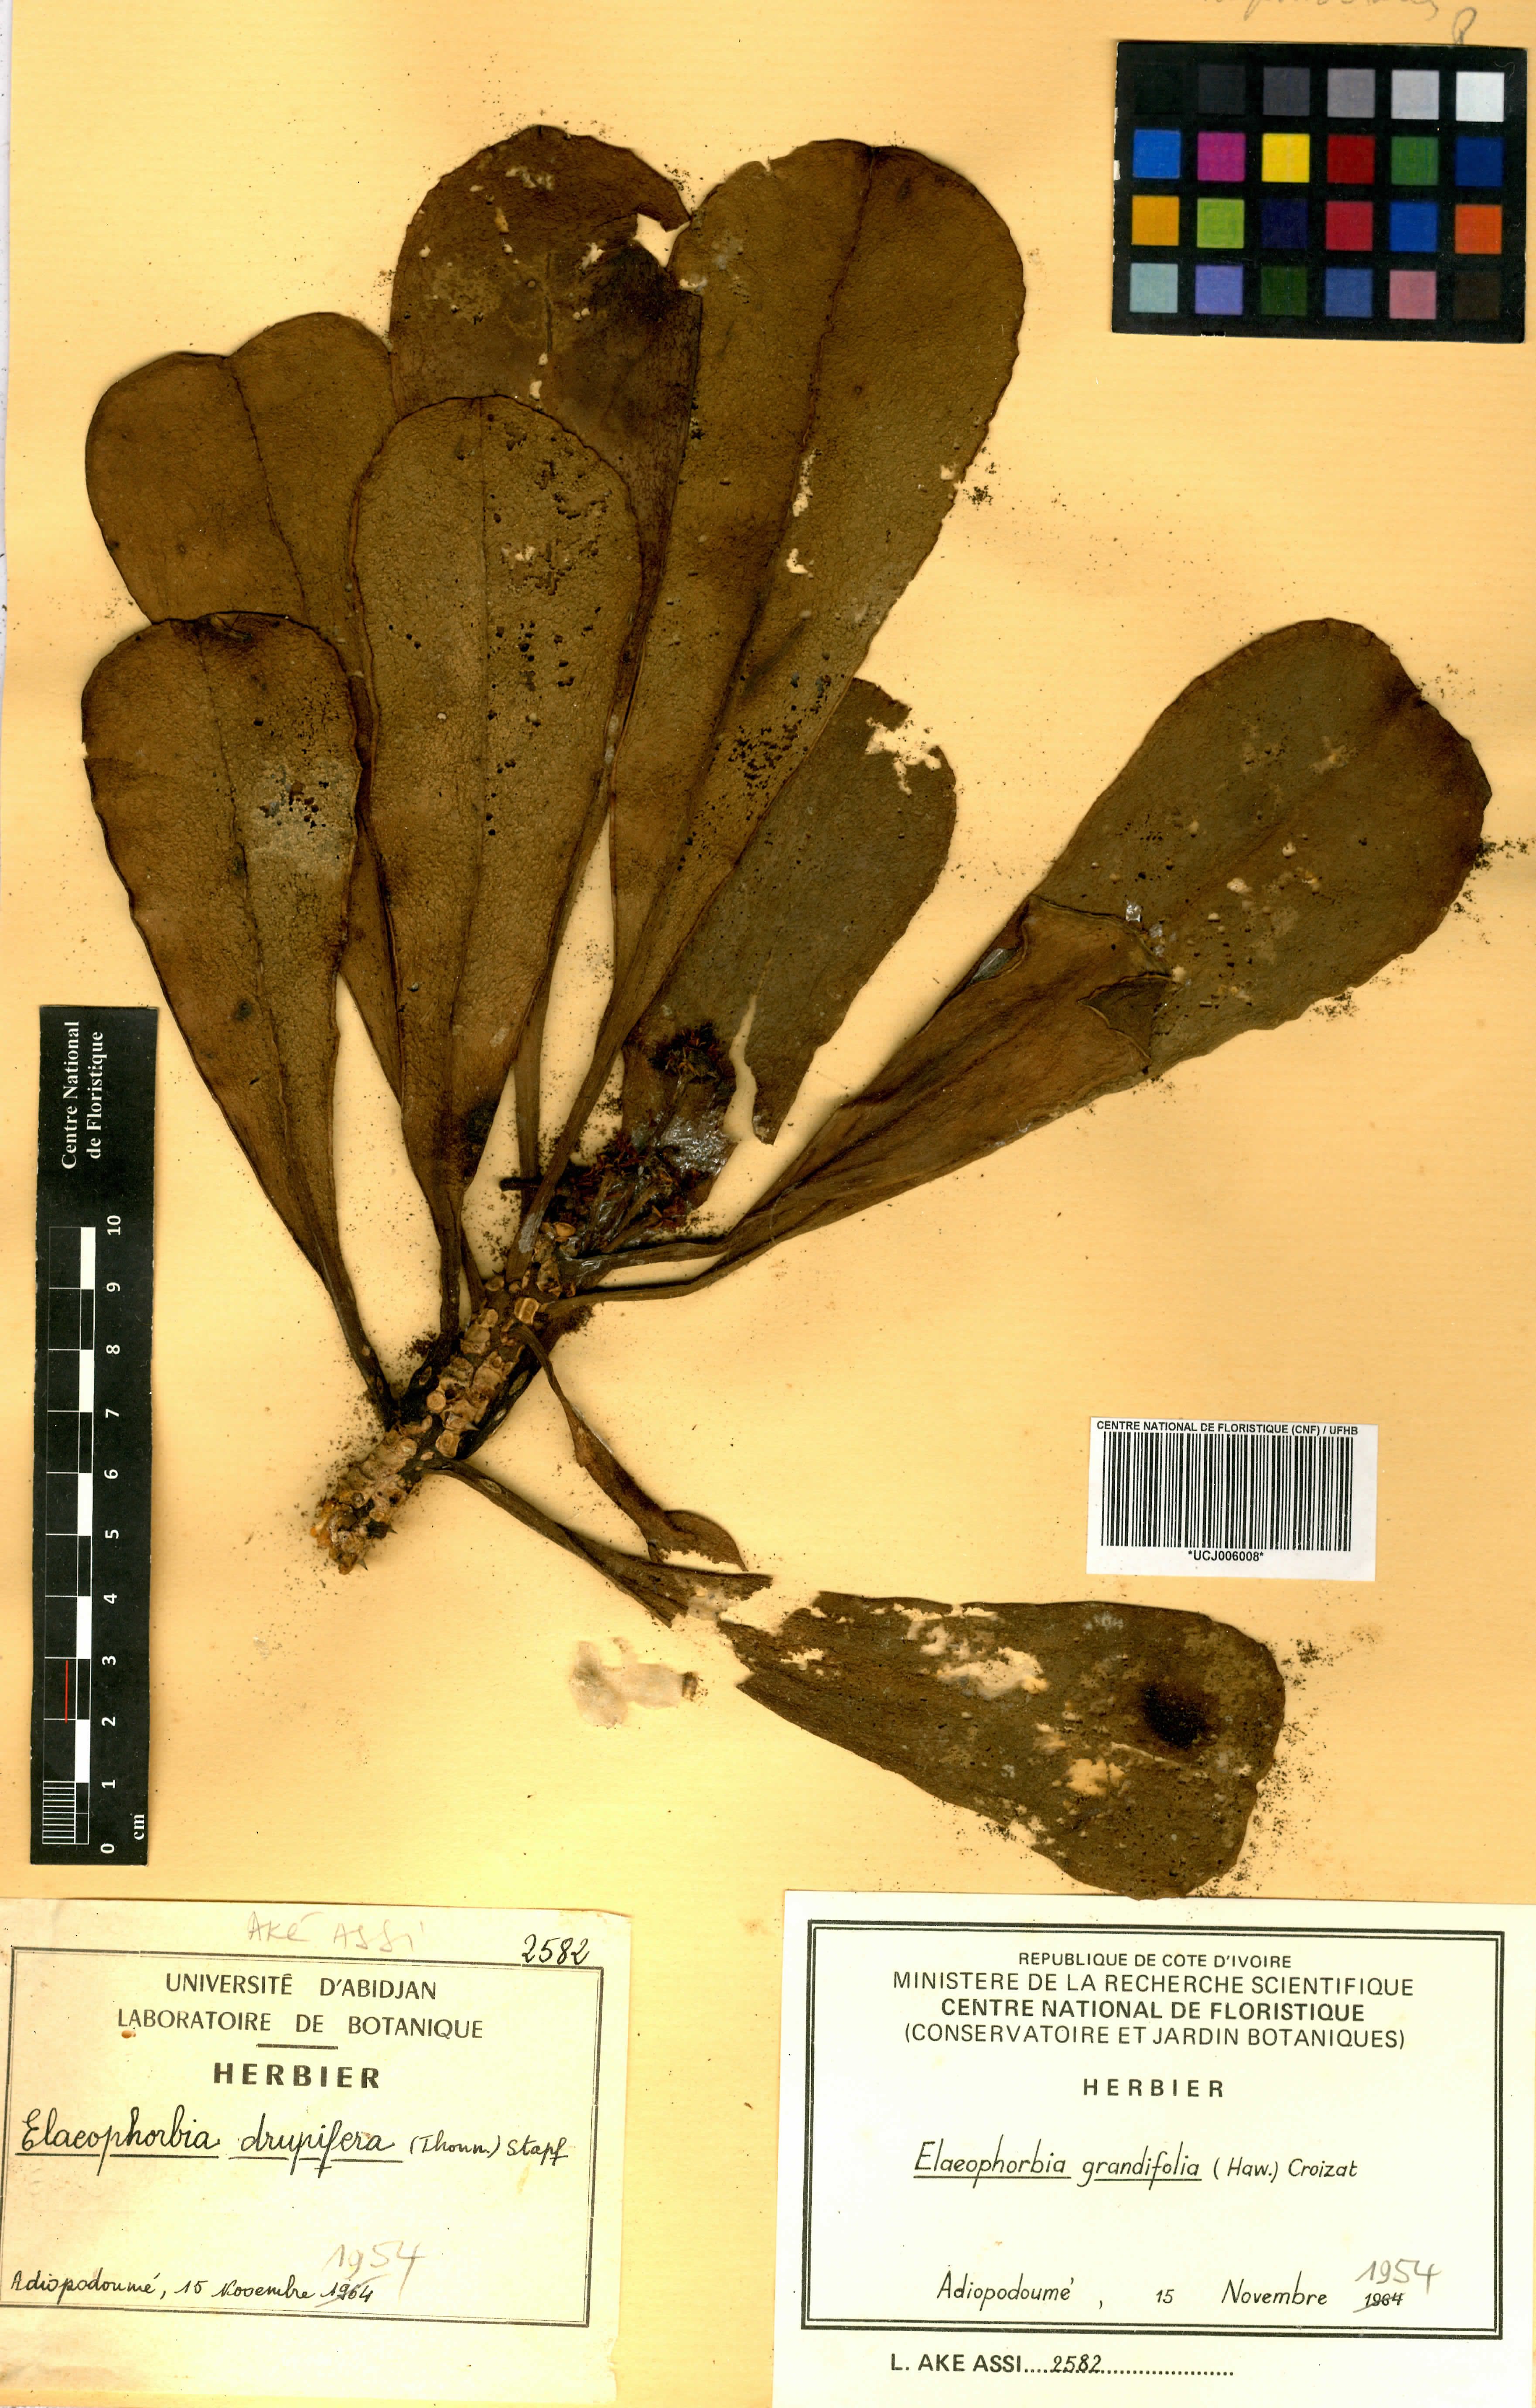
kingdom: Plantae
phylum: Tracheophyta
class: Magnoliopsida
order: Malpighiales
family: Euphorbiaceae
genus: Euphorbia
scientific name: Euphorbia grandifolia
